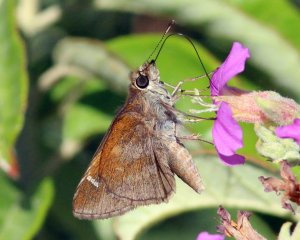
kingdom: Animalia
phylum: Arthropoda
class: Insecta
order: Lepidoptera
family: Hesperiidae
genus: Lerema
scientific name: Lerema accius
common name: Clouded Skipper
